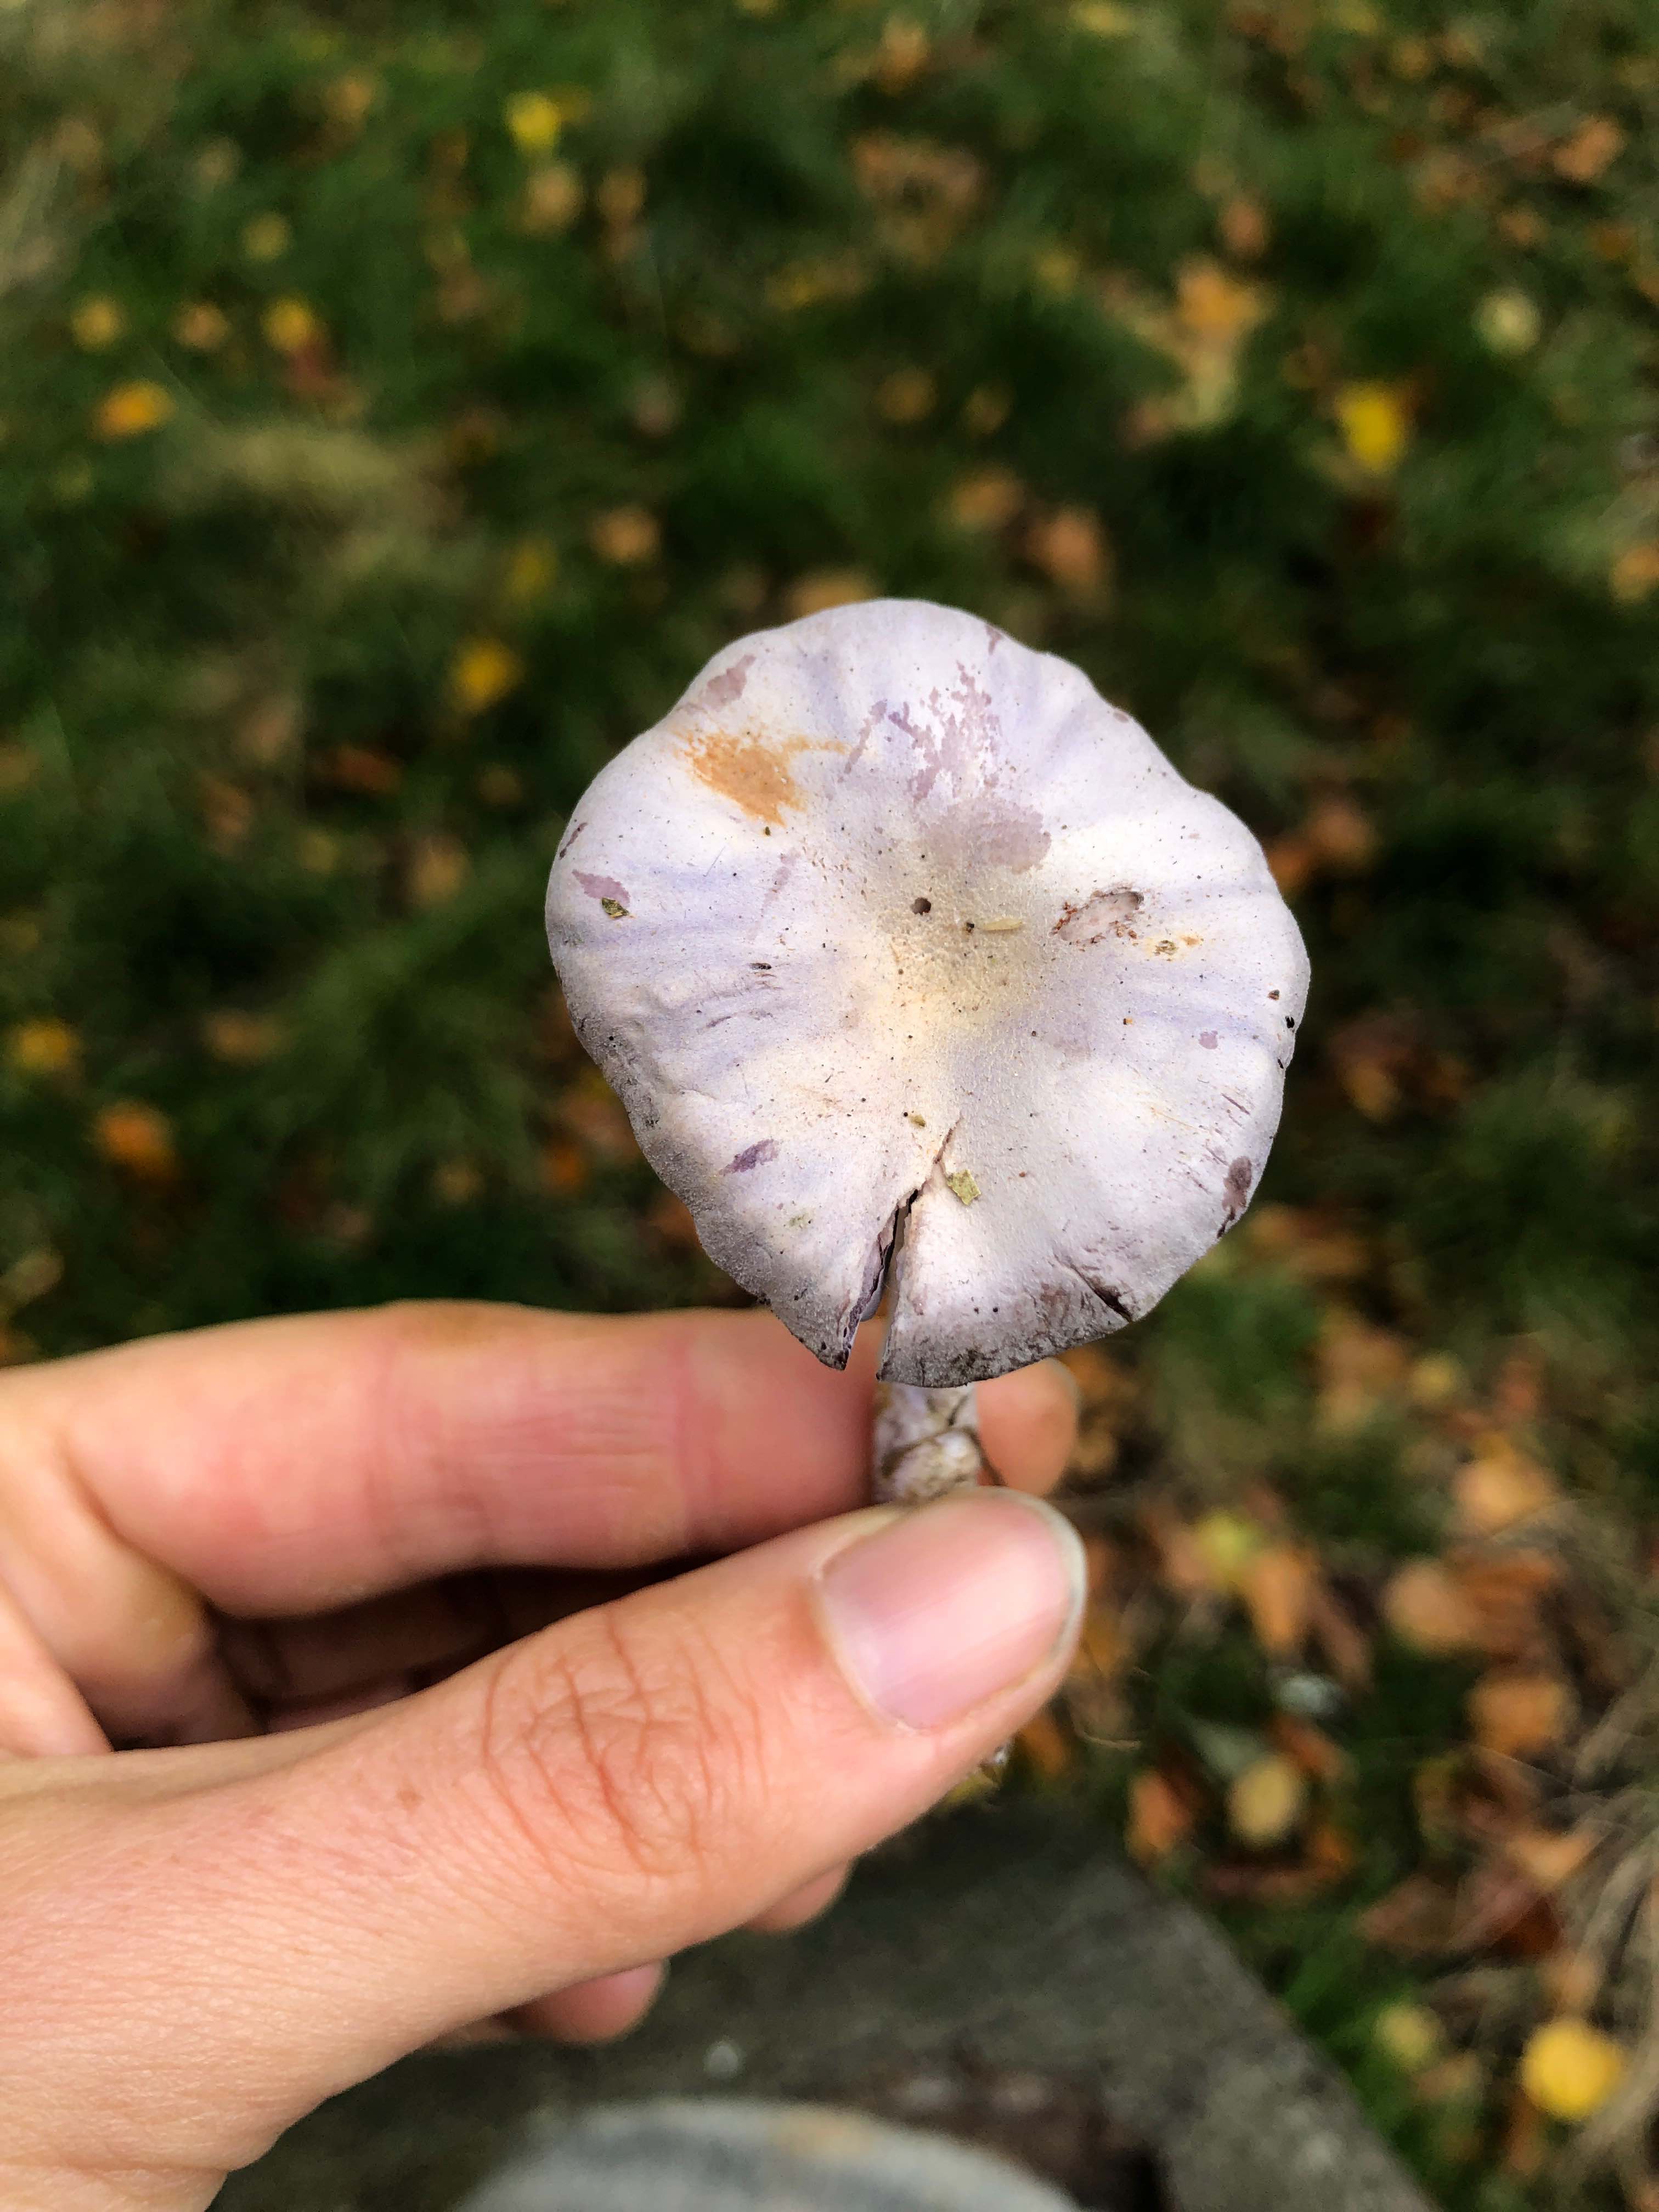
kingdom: Fungi
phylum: Basidiomycota
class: Agaricomycetes
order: Agaricales
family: Hydnangiaceae
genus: Laccaria
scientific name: Laccaria amethystina
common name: violet ametysthat
